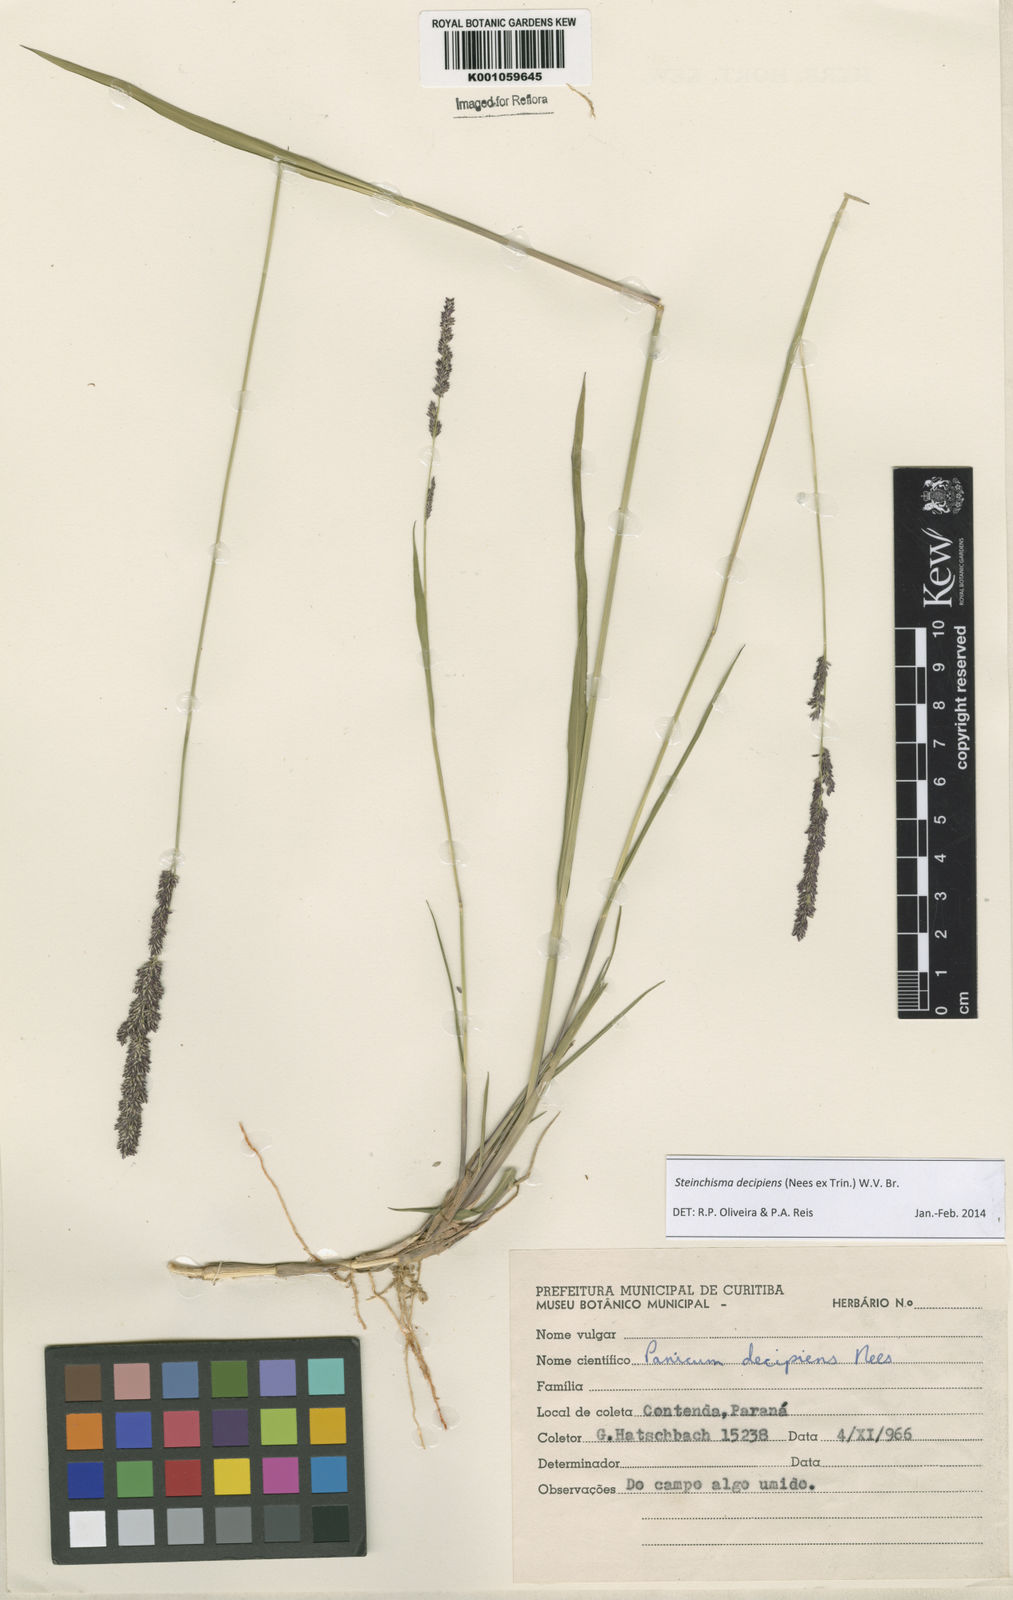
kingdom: Plantae
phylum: Tracheophyta
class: Liliopsida
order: Poales
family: Poaceae
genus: Steinchisma
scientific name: Steinchisma decipiens
